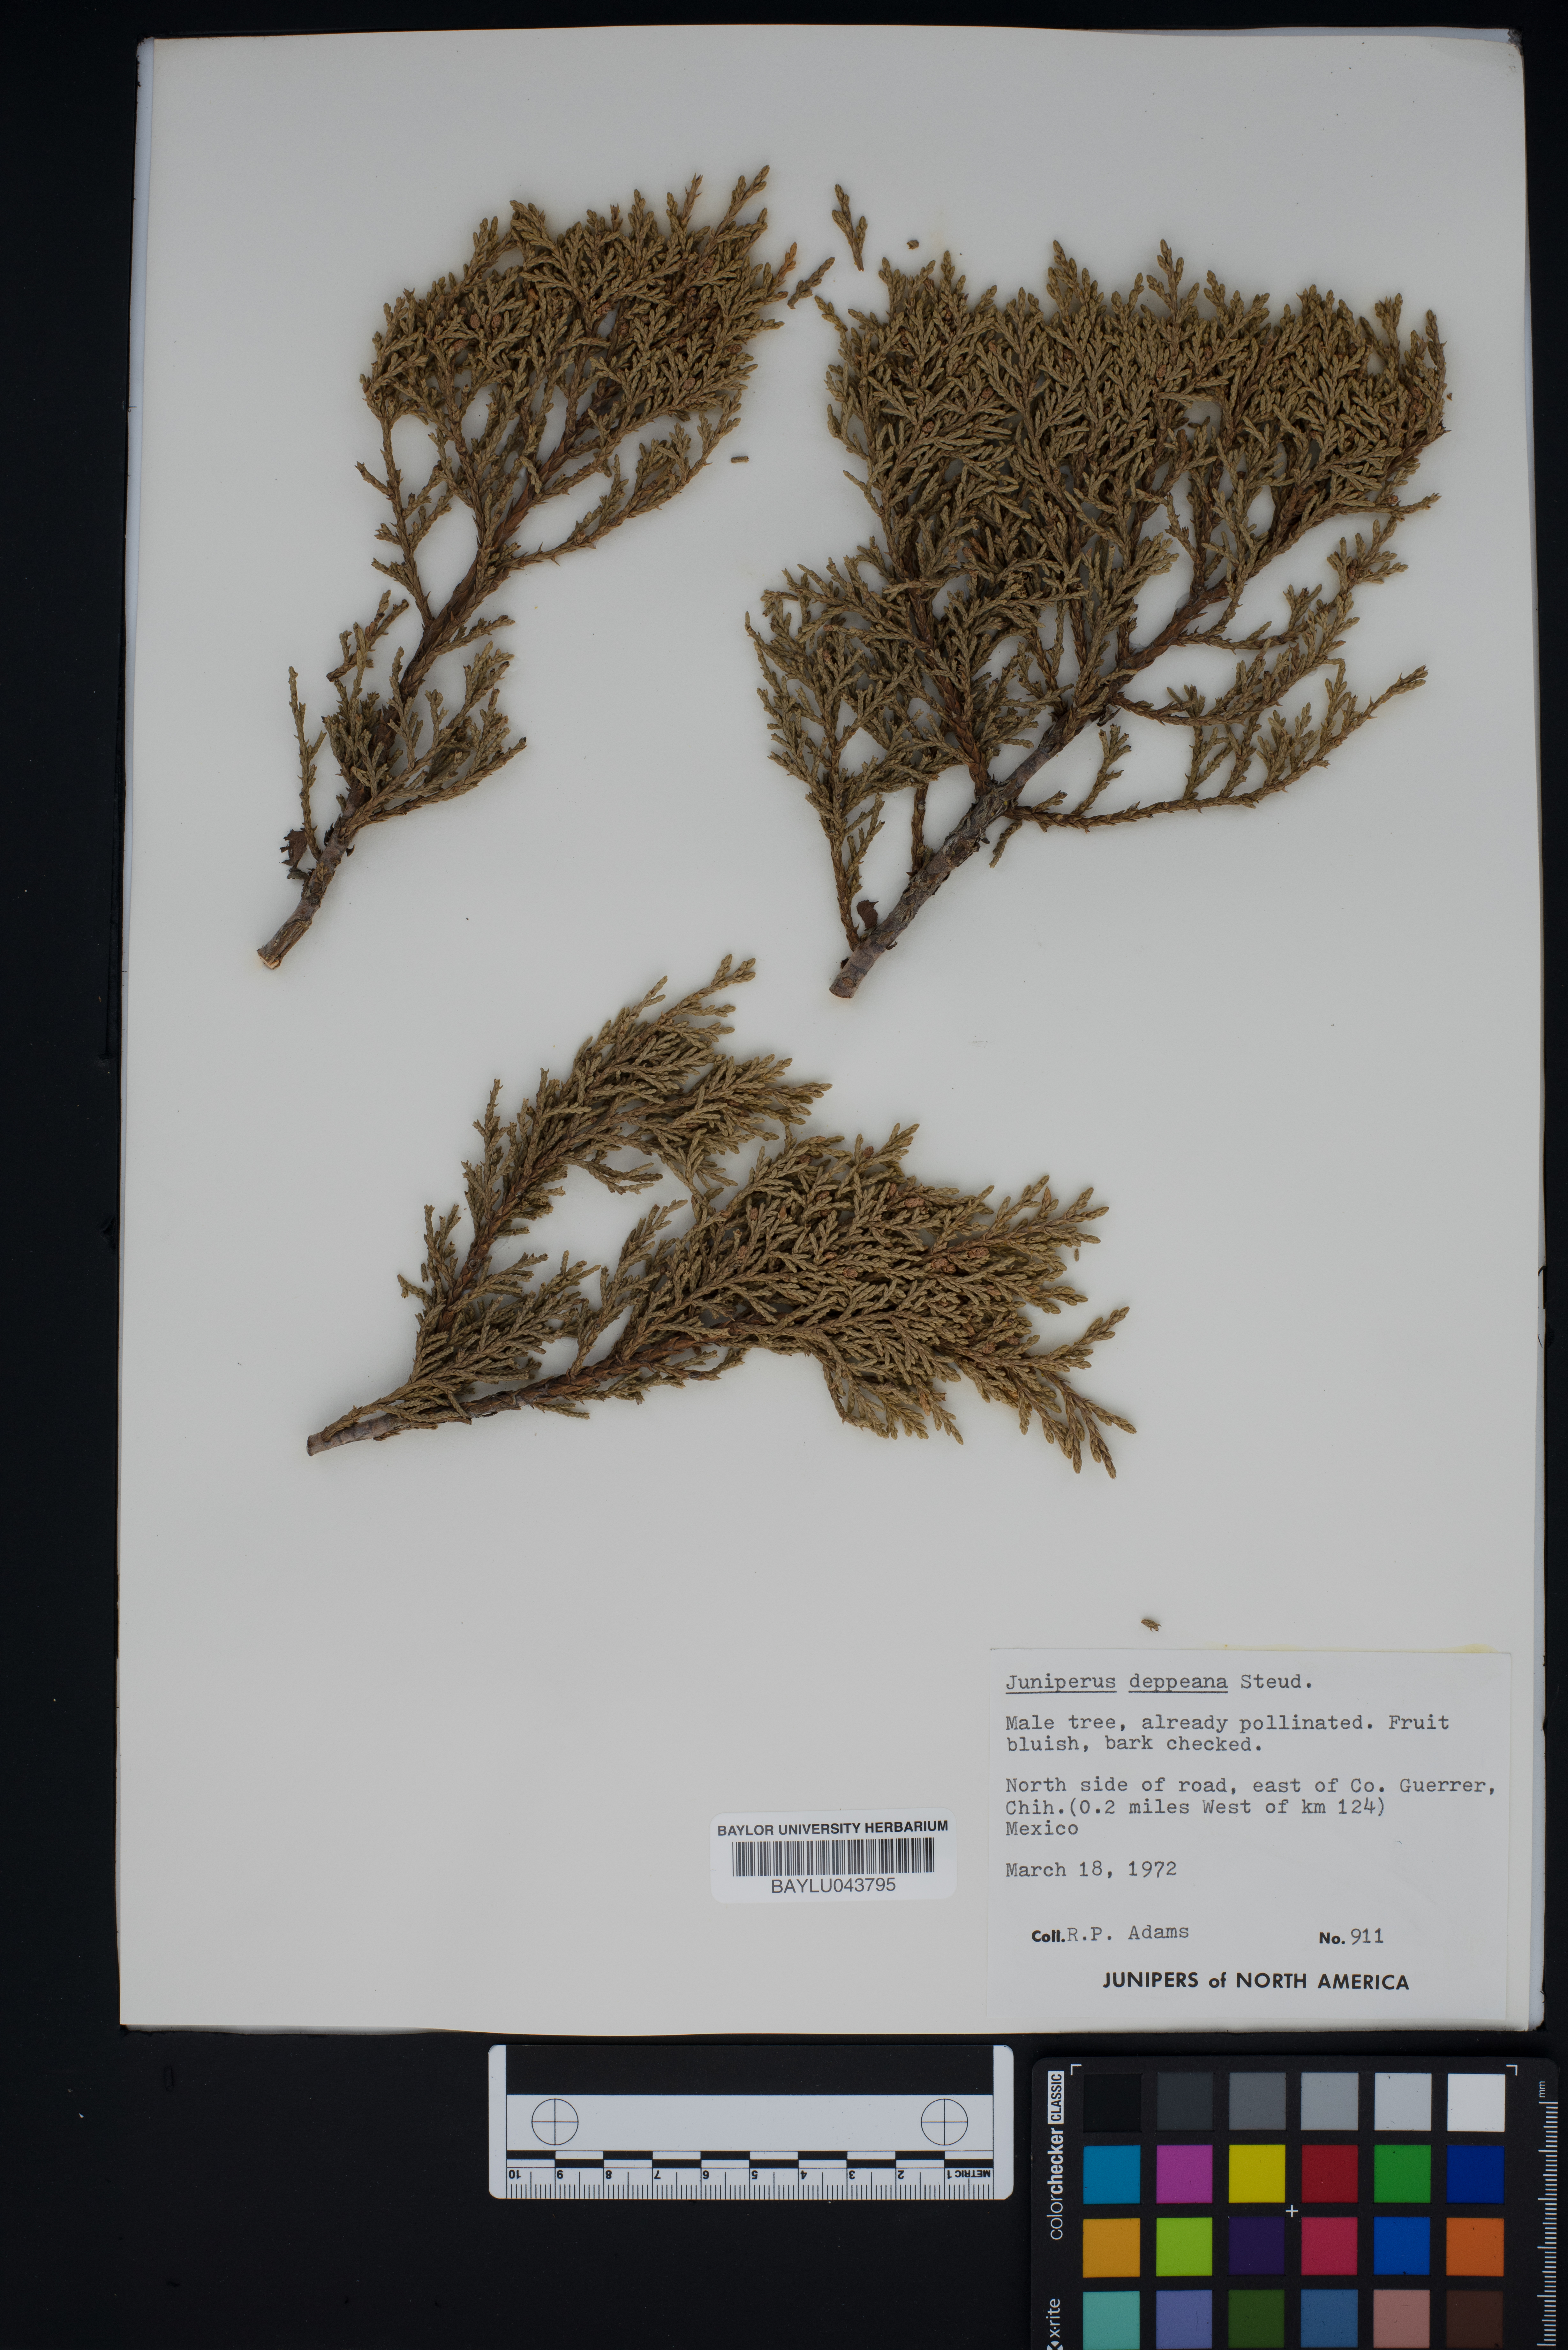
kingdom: Plantae
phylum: Tracheophyta
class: Pinopsida
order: Pinales
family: Cupressaceae
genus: Juniperus
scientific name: Juniperus deppeana
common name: Alligator juniper
